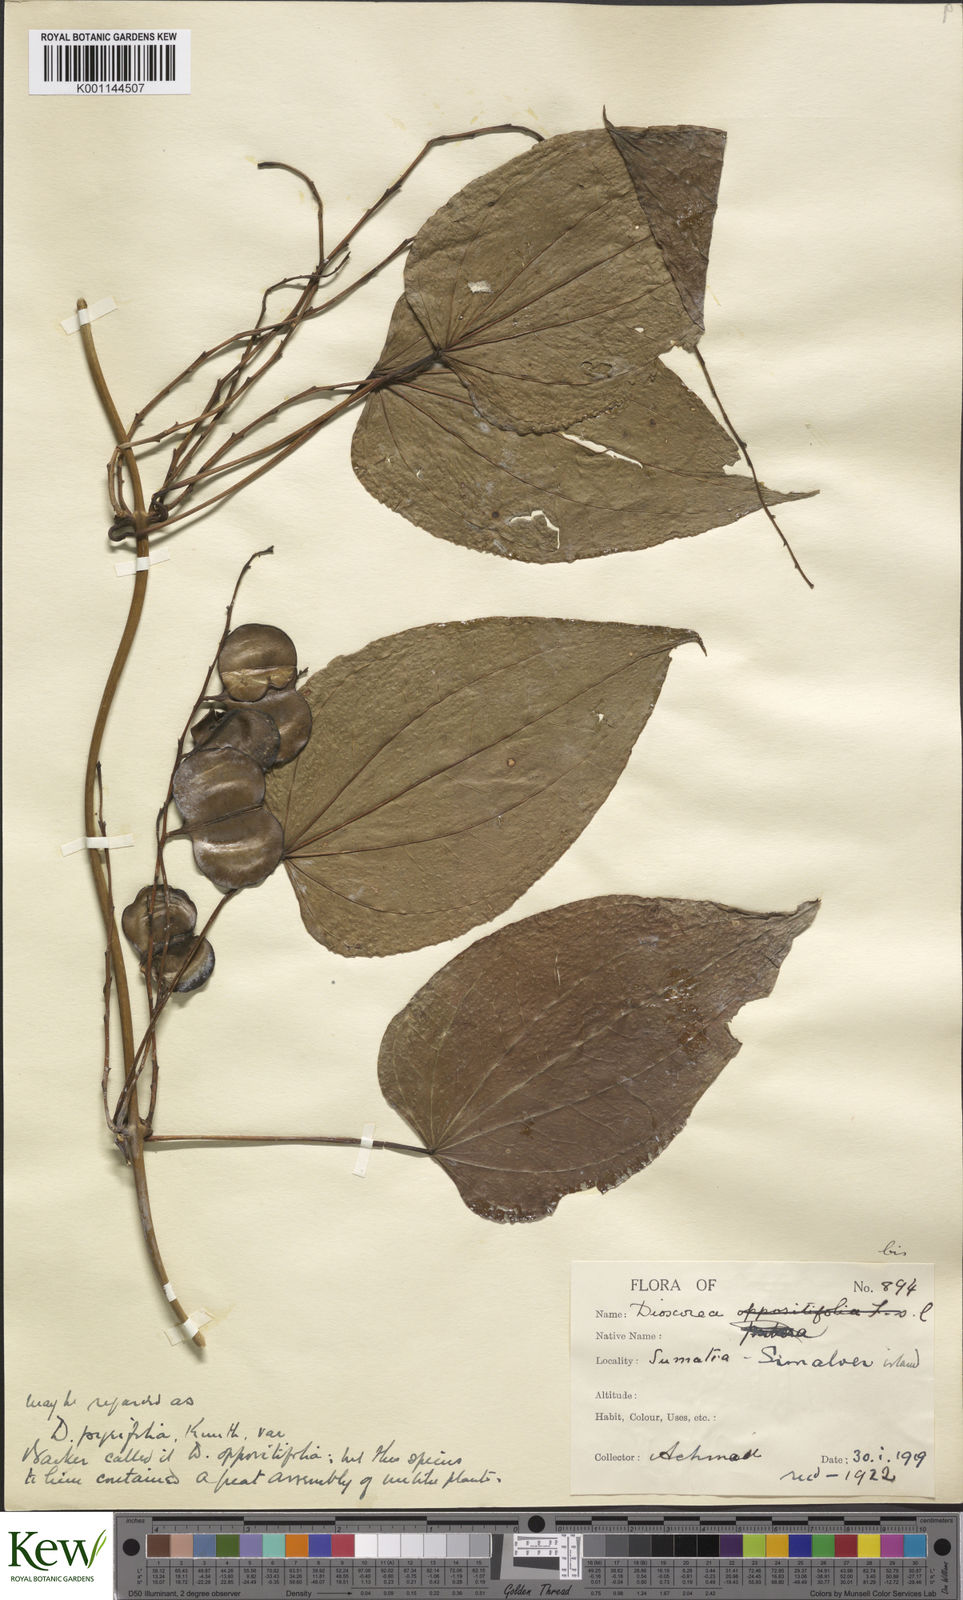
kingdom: Plantae
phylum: Tracheophyta
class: Liliopsida
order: Dioscoreales
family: Dioscoreaceae
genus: Dioscorea
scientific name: Dioscorea pyrifolia
